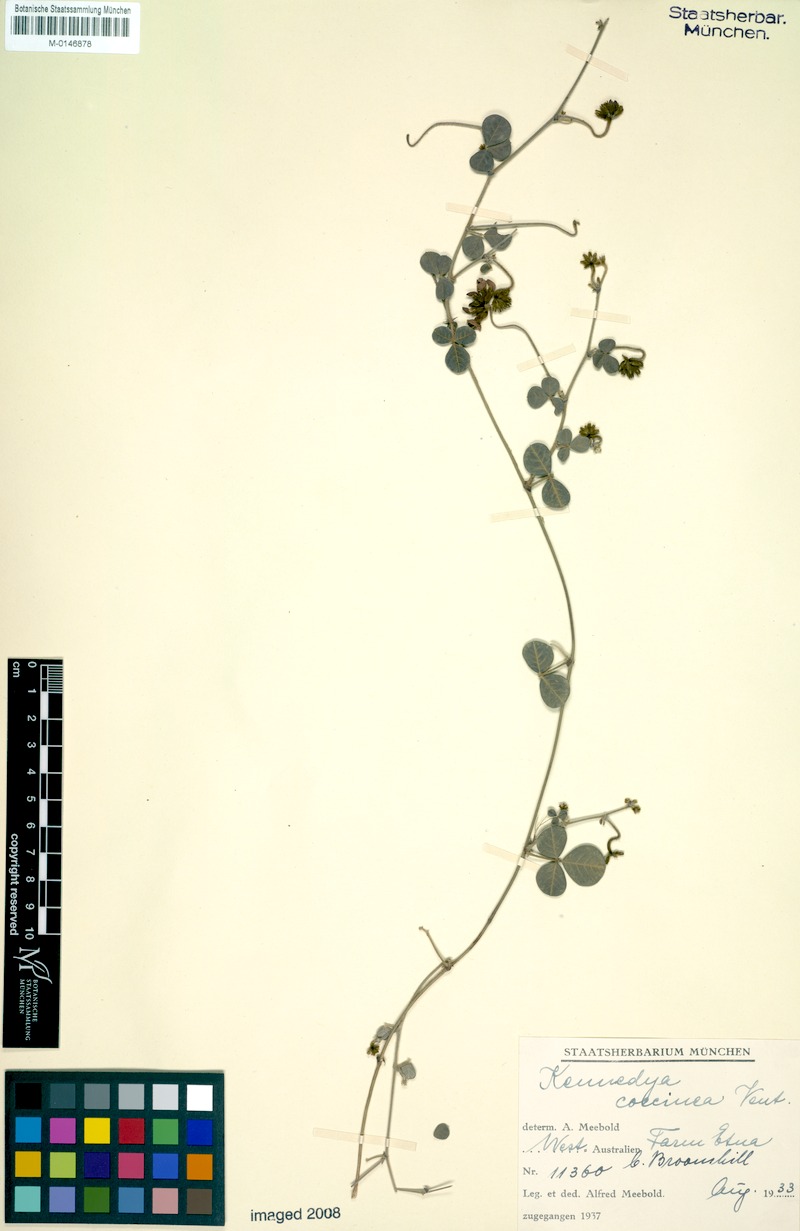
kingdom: Plantae
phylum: Tracheophyta
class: Magnoliopsida
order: Fabales
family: Fabaceae
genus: Kennedia
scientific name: Kennedia coccinea
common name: Coralvine
